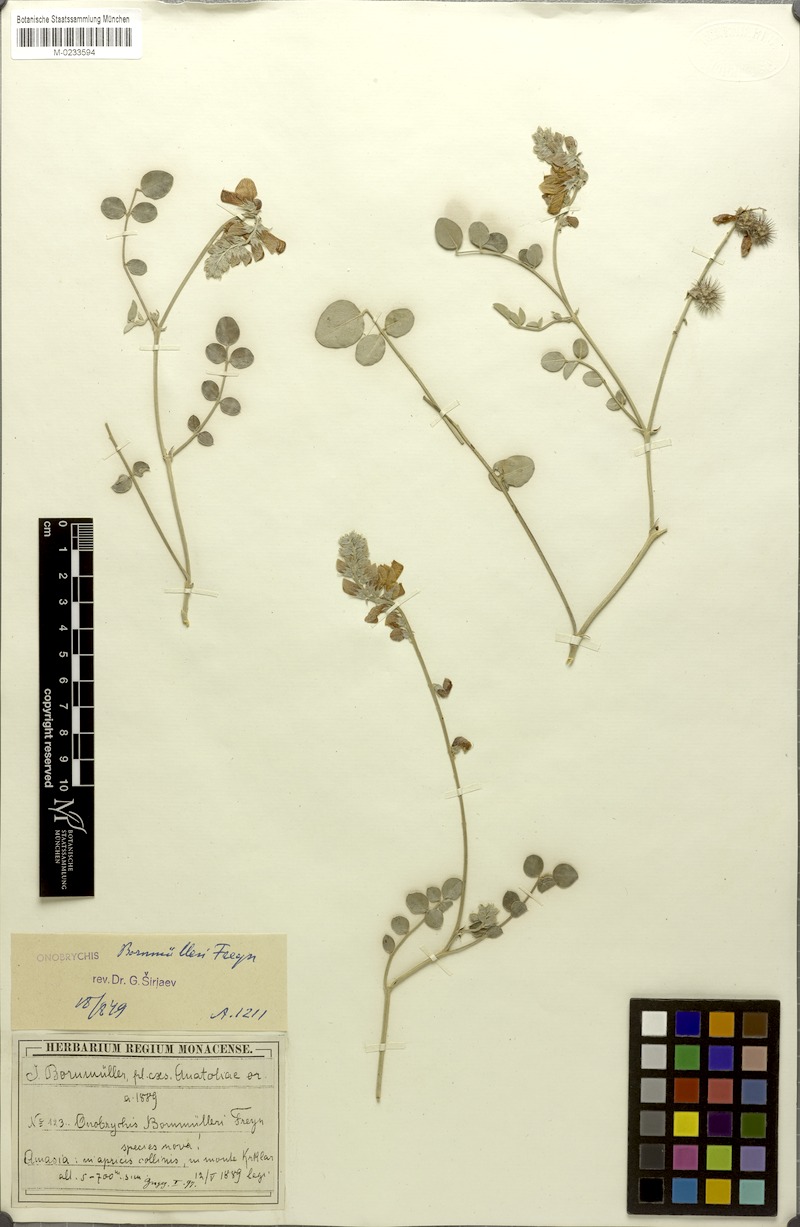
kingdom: Plantae
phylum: Tracheophyta
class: Magnoliopsida
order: Fabales
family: Fabaceae
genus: Onobrychis
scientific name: Onobrychis bornmuelleri
